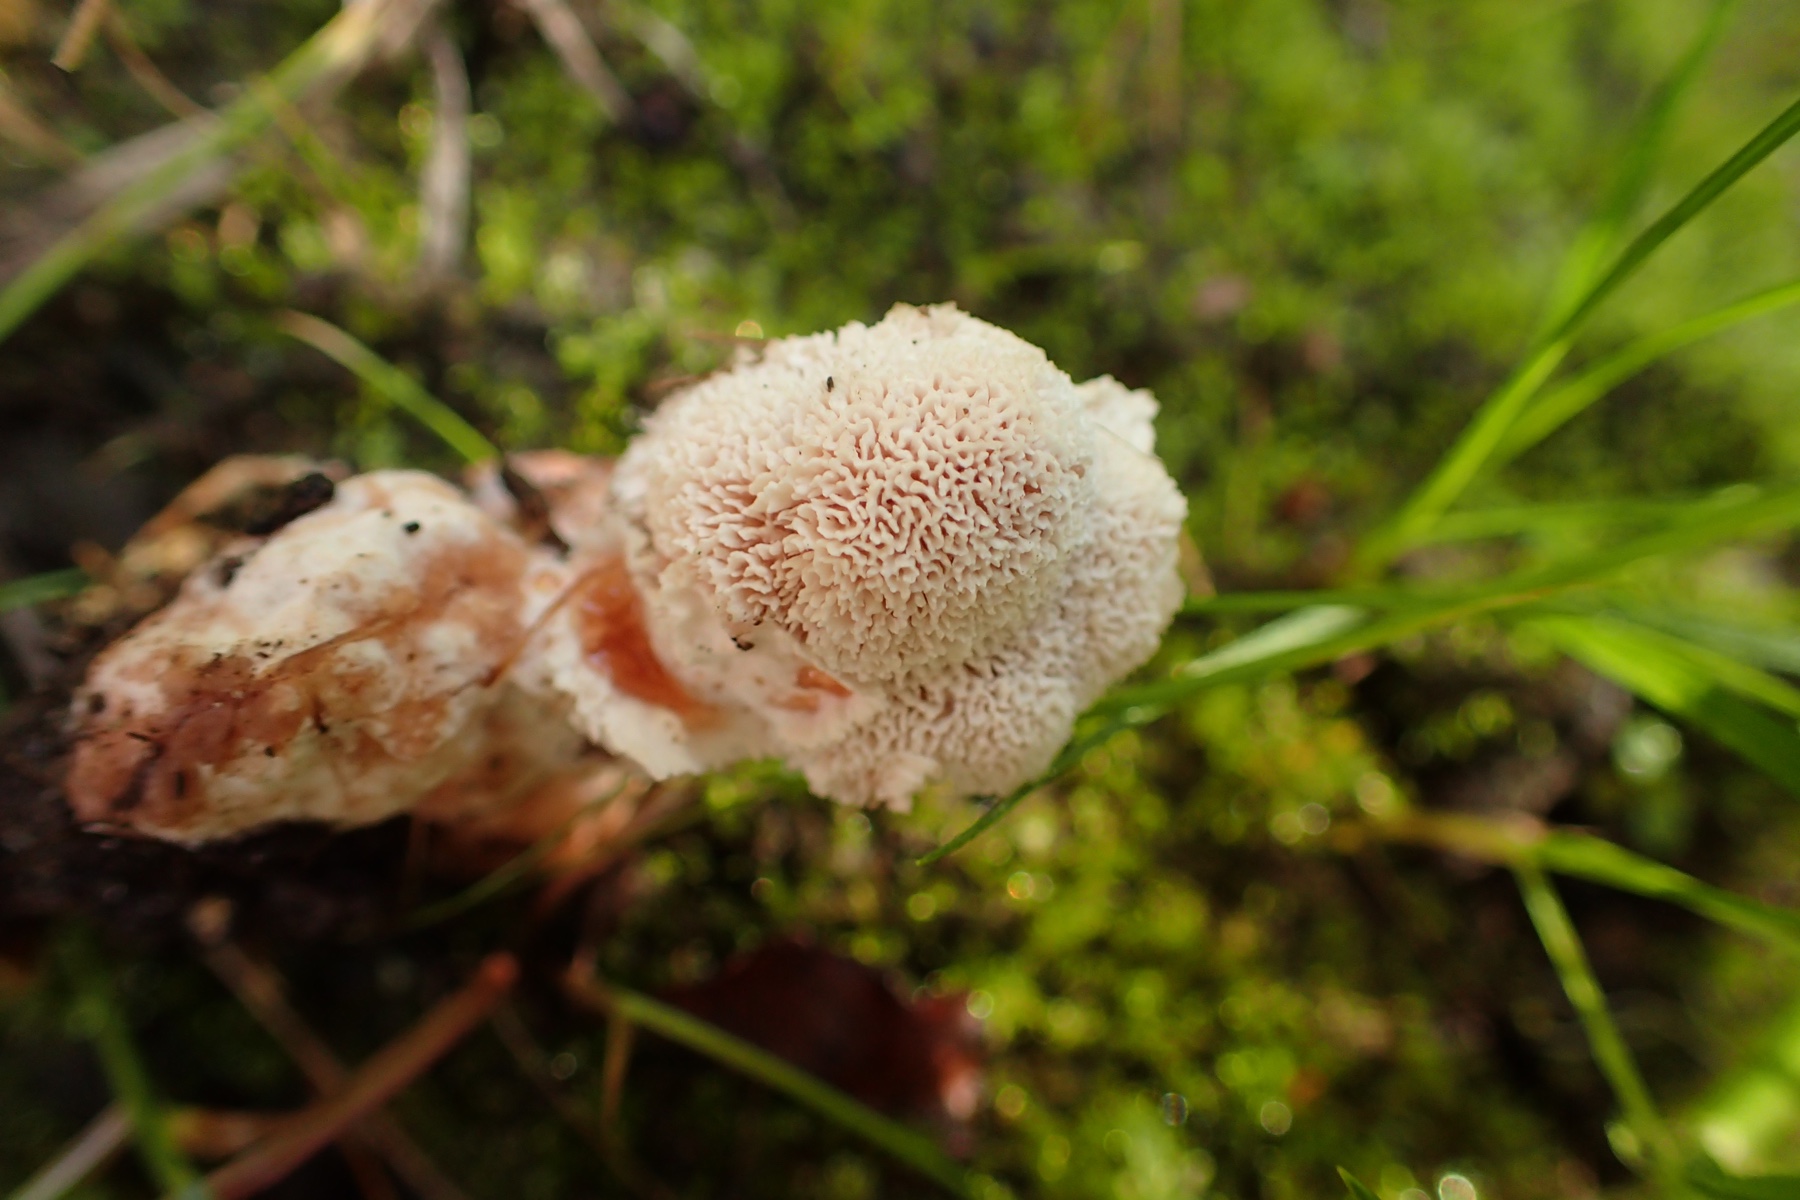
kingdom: Fungi
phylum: Basidiomycota
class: Agaricomycetes
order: Polyporales
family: Podoscyphaceae
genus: Abortiporus
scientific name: Abortiporus biennis
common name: rødmende pjalteporesvamp
